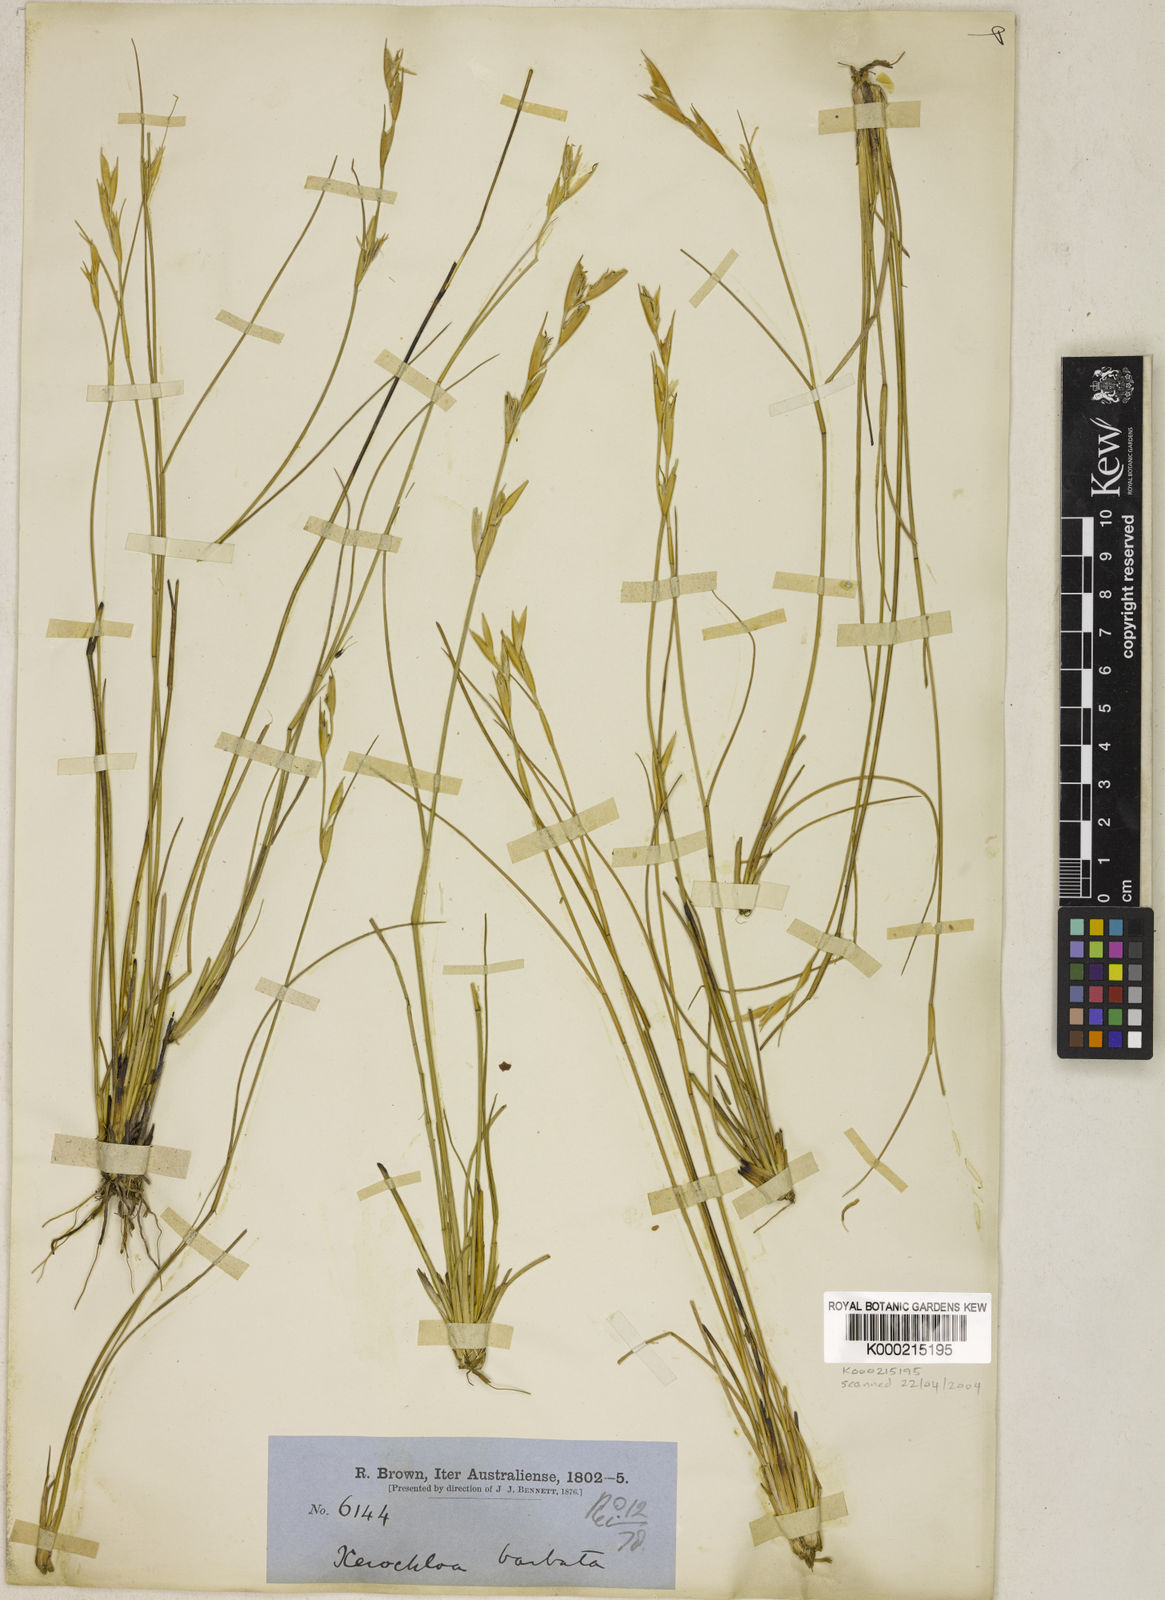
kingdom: Plantae
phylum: Tracheophyta
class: Liliopsida
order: Poales
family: Poaceae
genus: Xerochloa
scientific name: Xerochloa barbata
